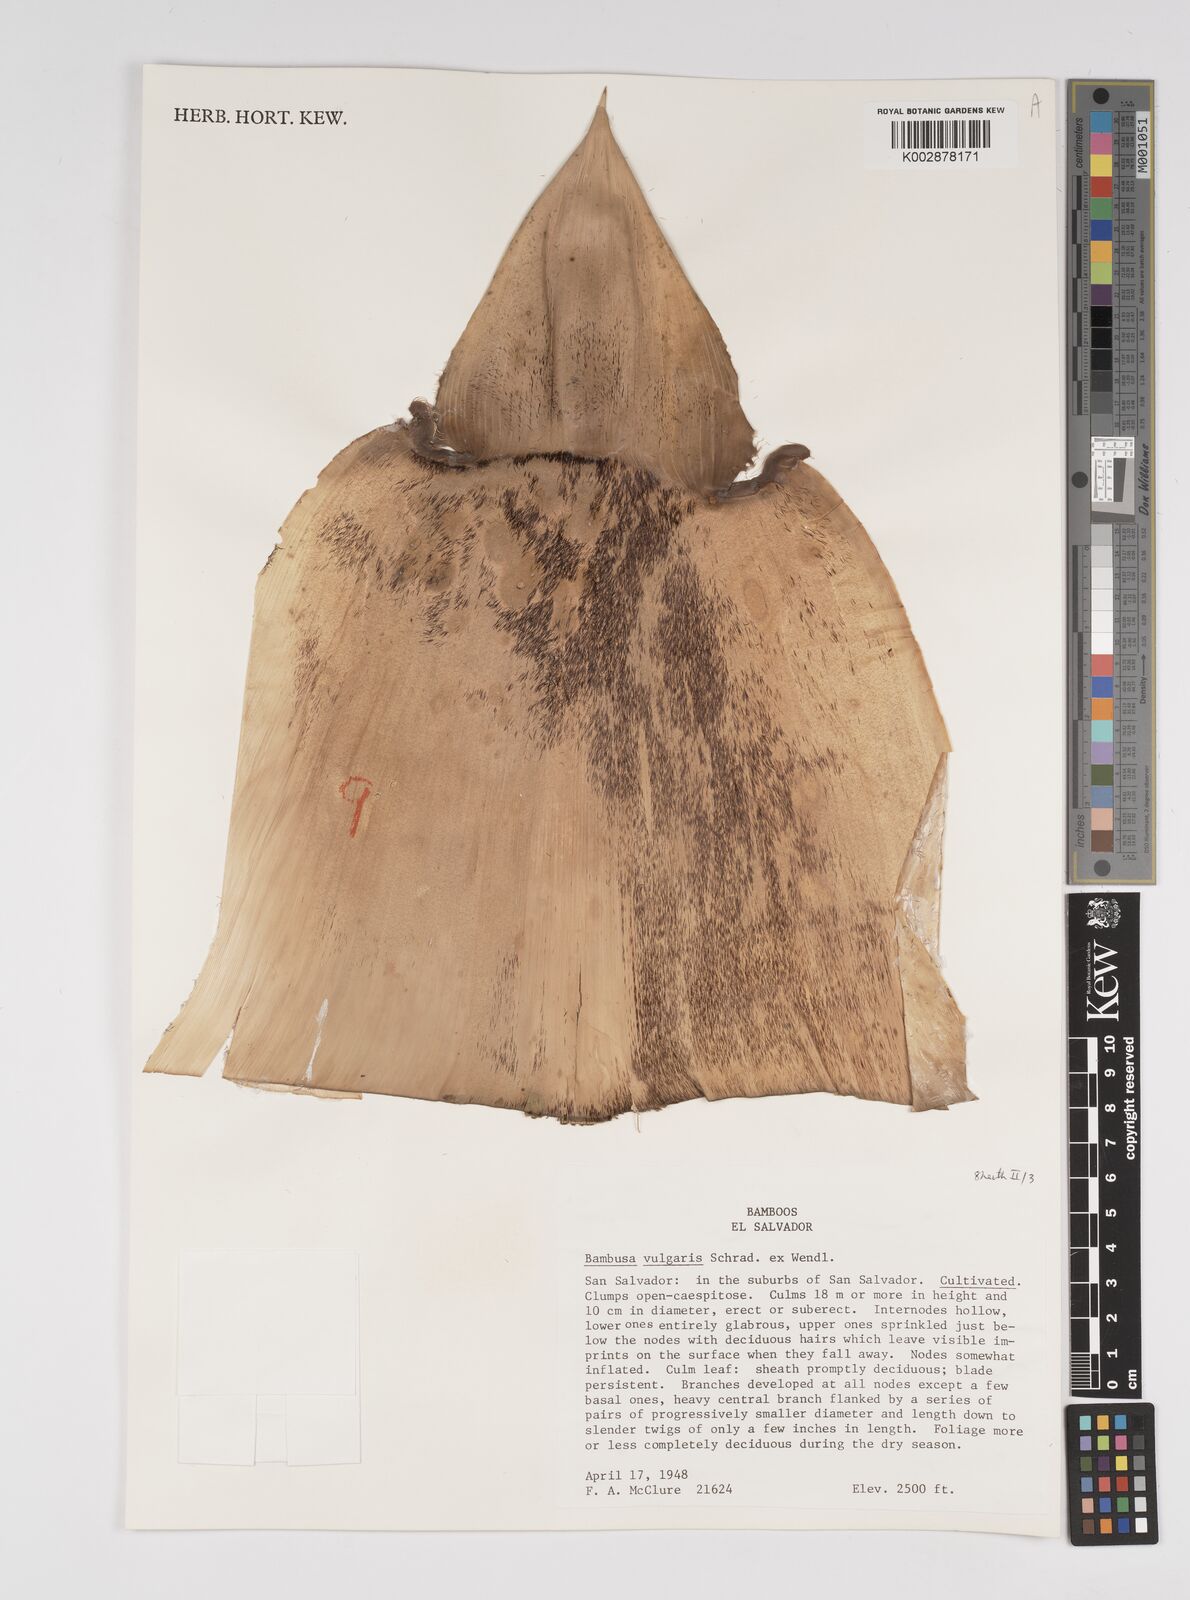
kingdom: Plantae
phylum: Tracheophyta
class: Liliopsida
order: Poales
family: Poaceae
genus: Bambusa
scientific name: Bambusa
